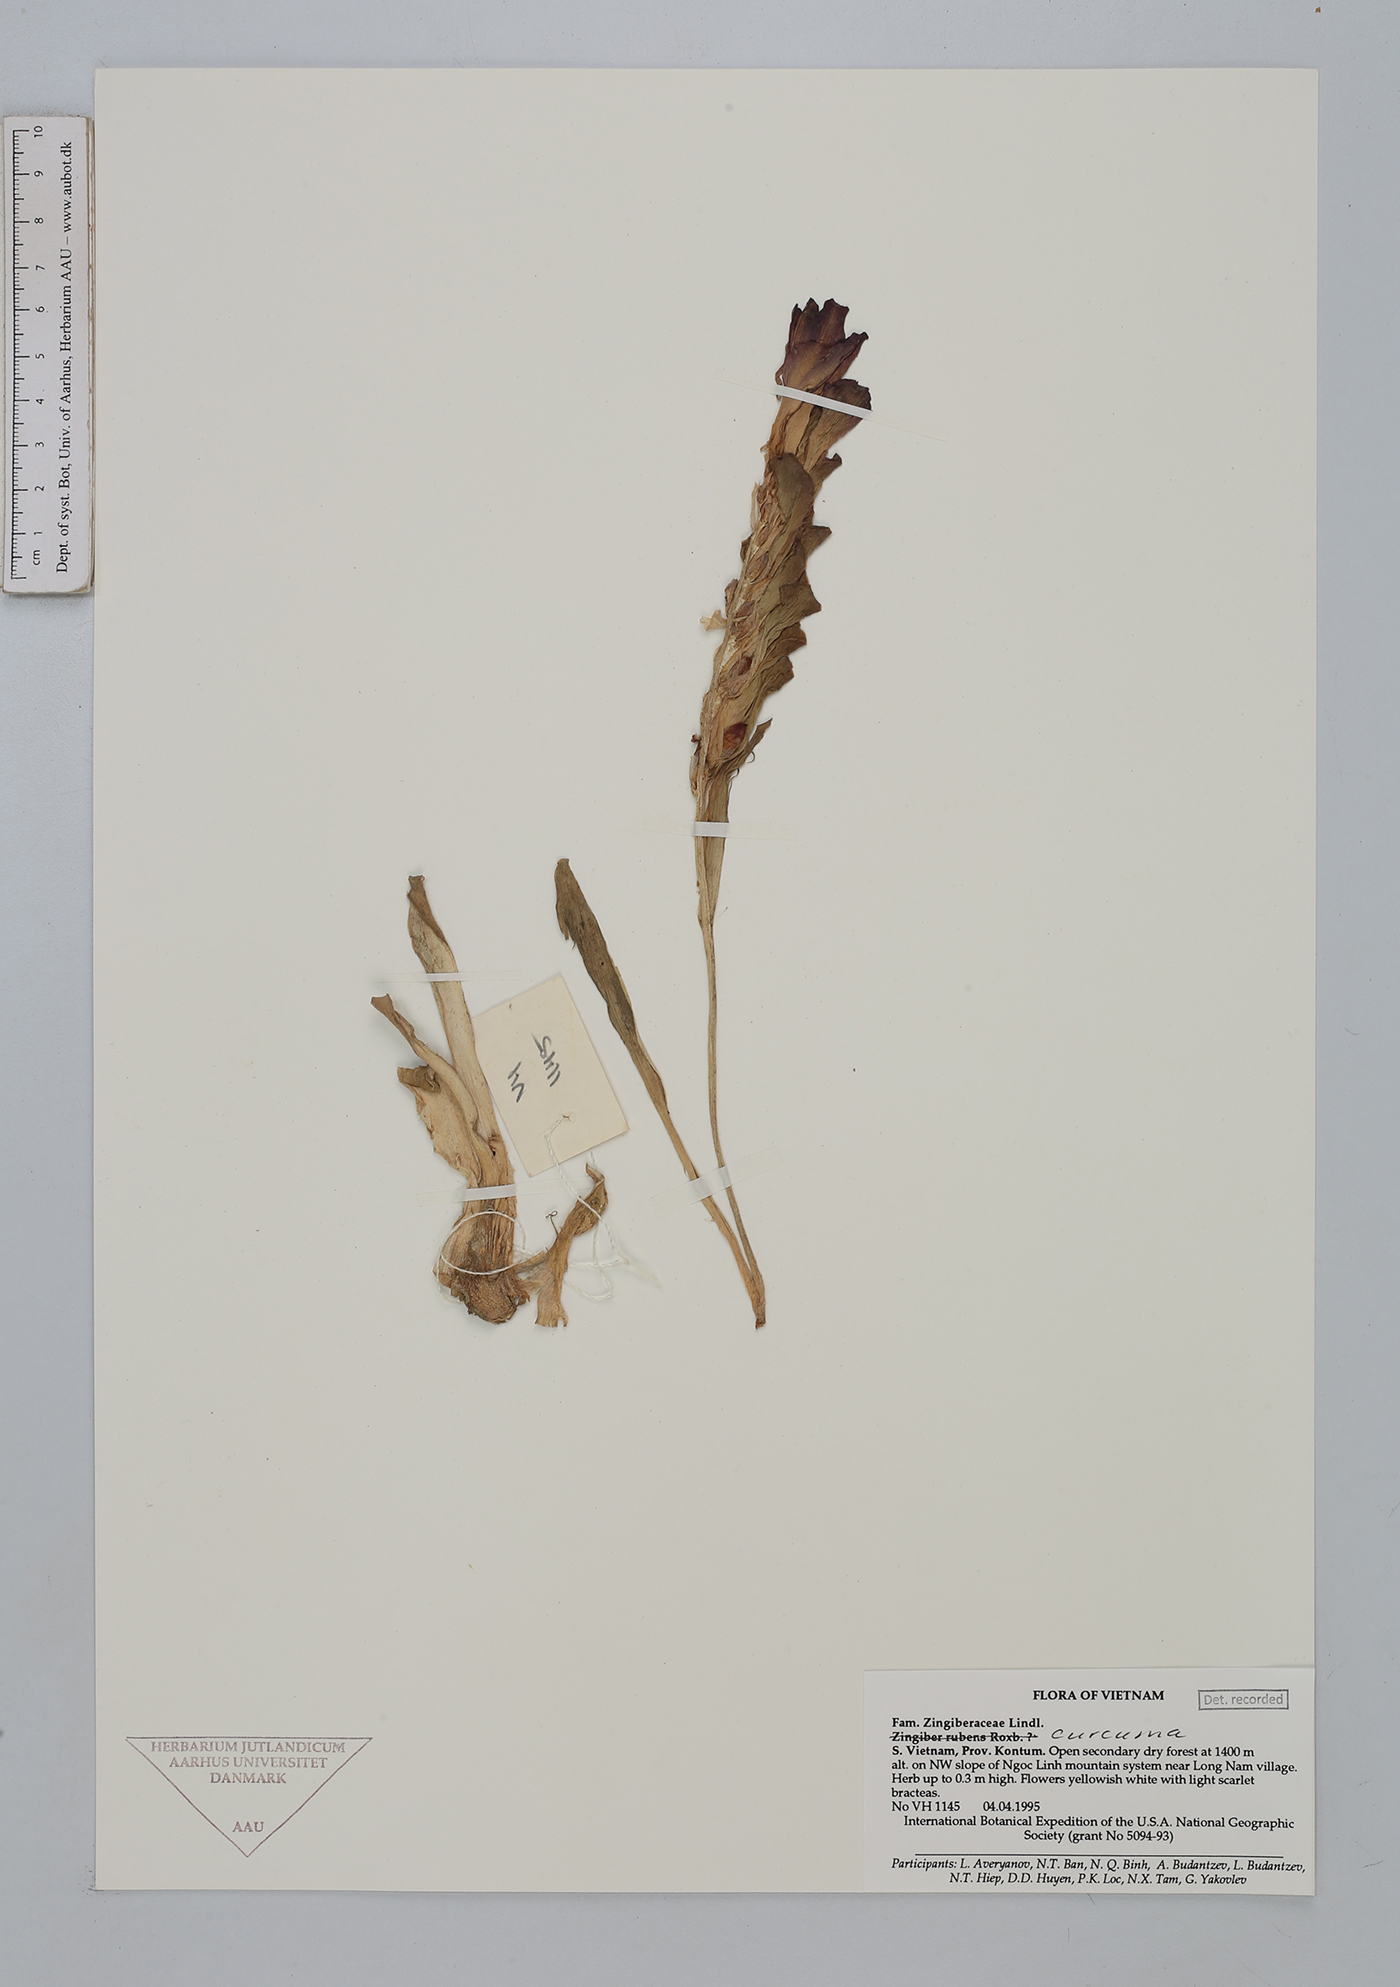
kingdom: Plantae
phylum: Tracheophyta
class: Liliopsida
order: Zingiberales
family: Zingiberaceae
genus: Curcuma
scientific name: Curcuma
